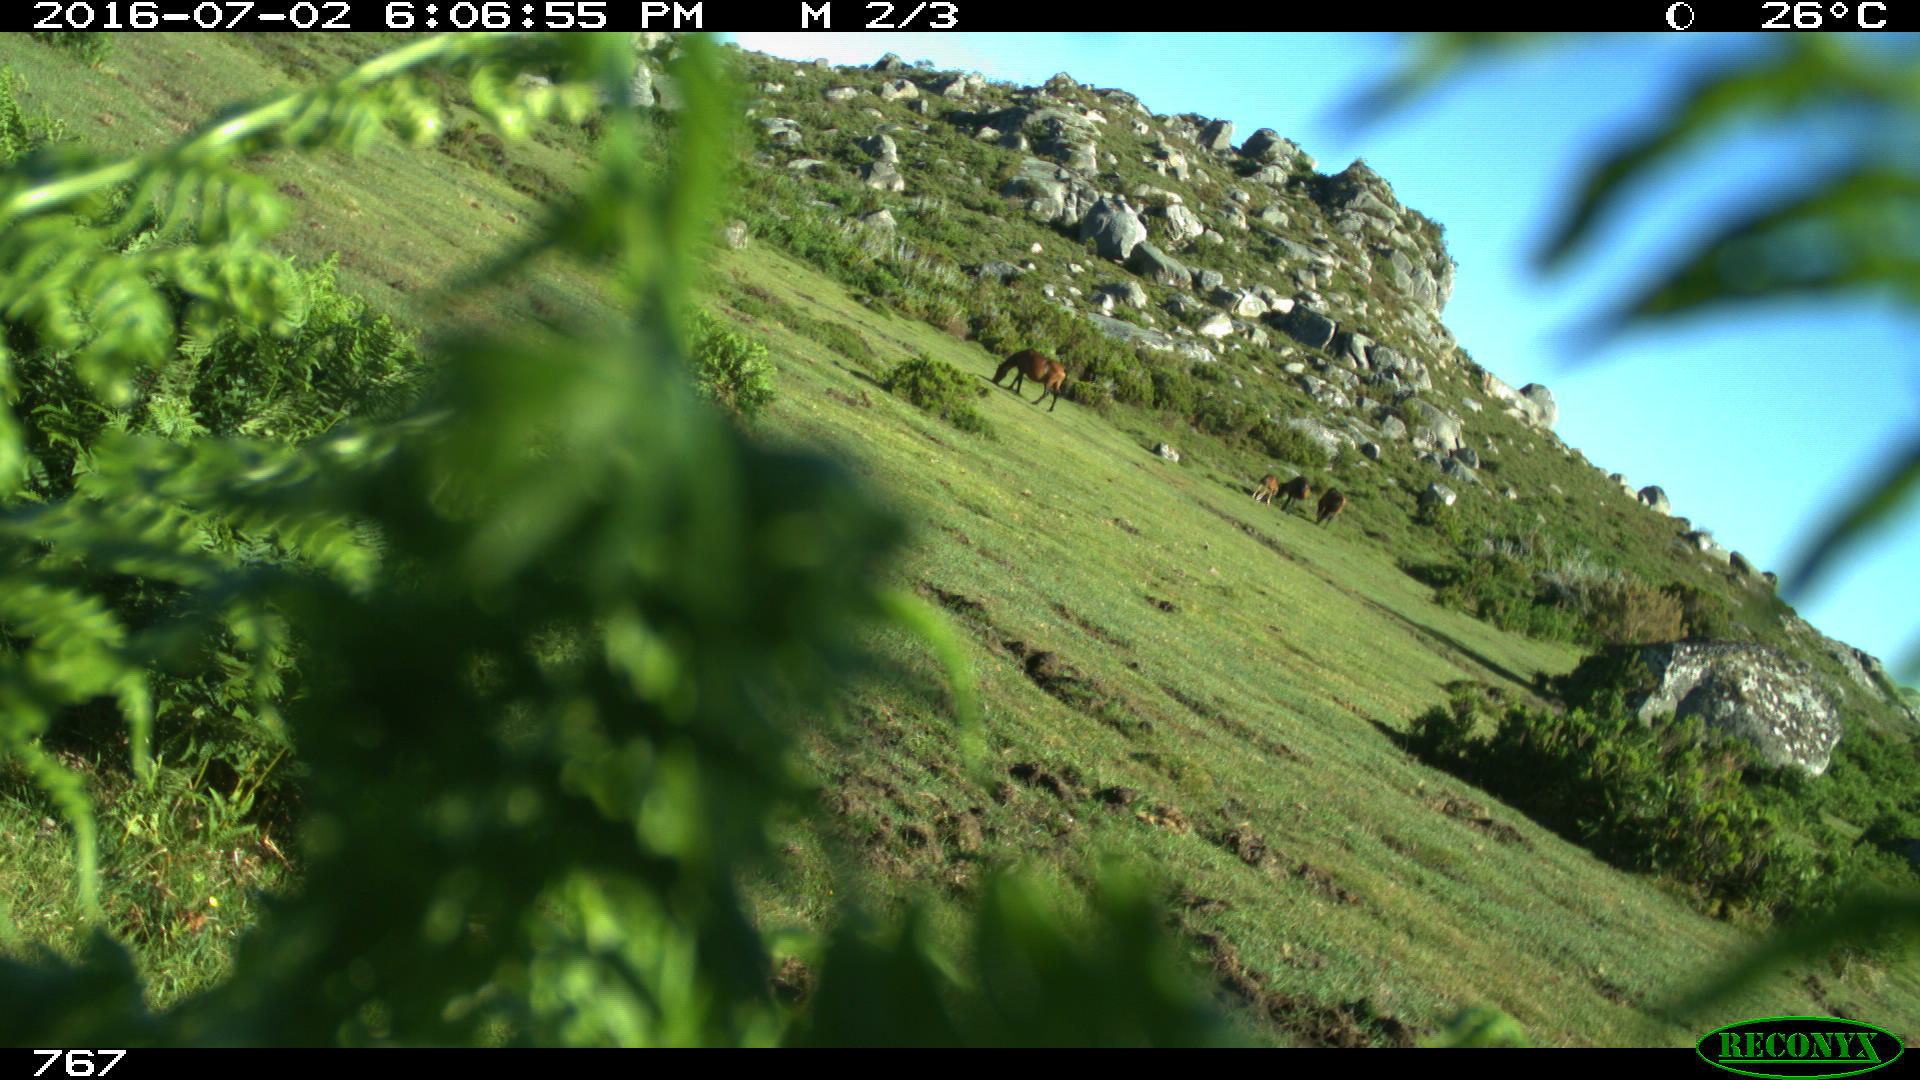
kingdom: Animalia
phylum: Chordata
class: Mammalia
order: Perissodactyla
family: Equidae
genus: Equus
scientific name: Equus caballus
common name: Horse
